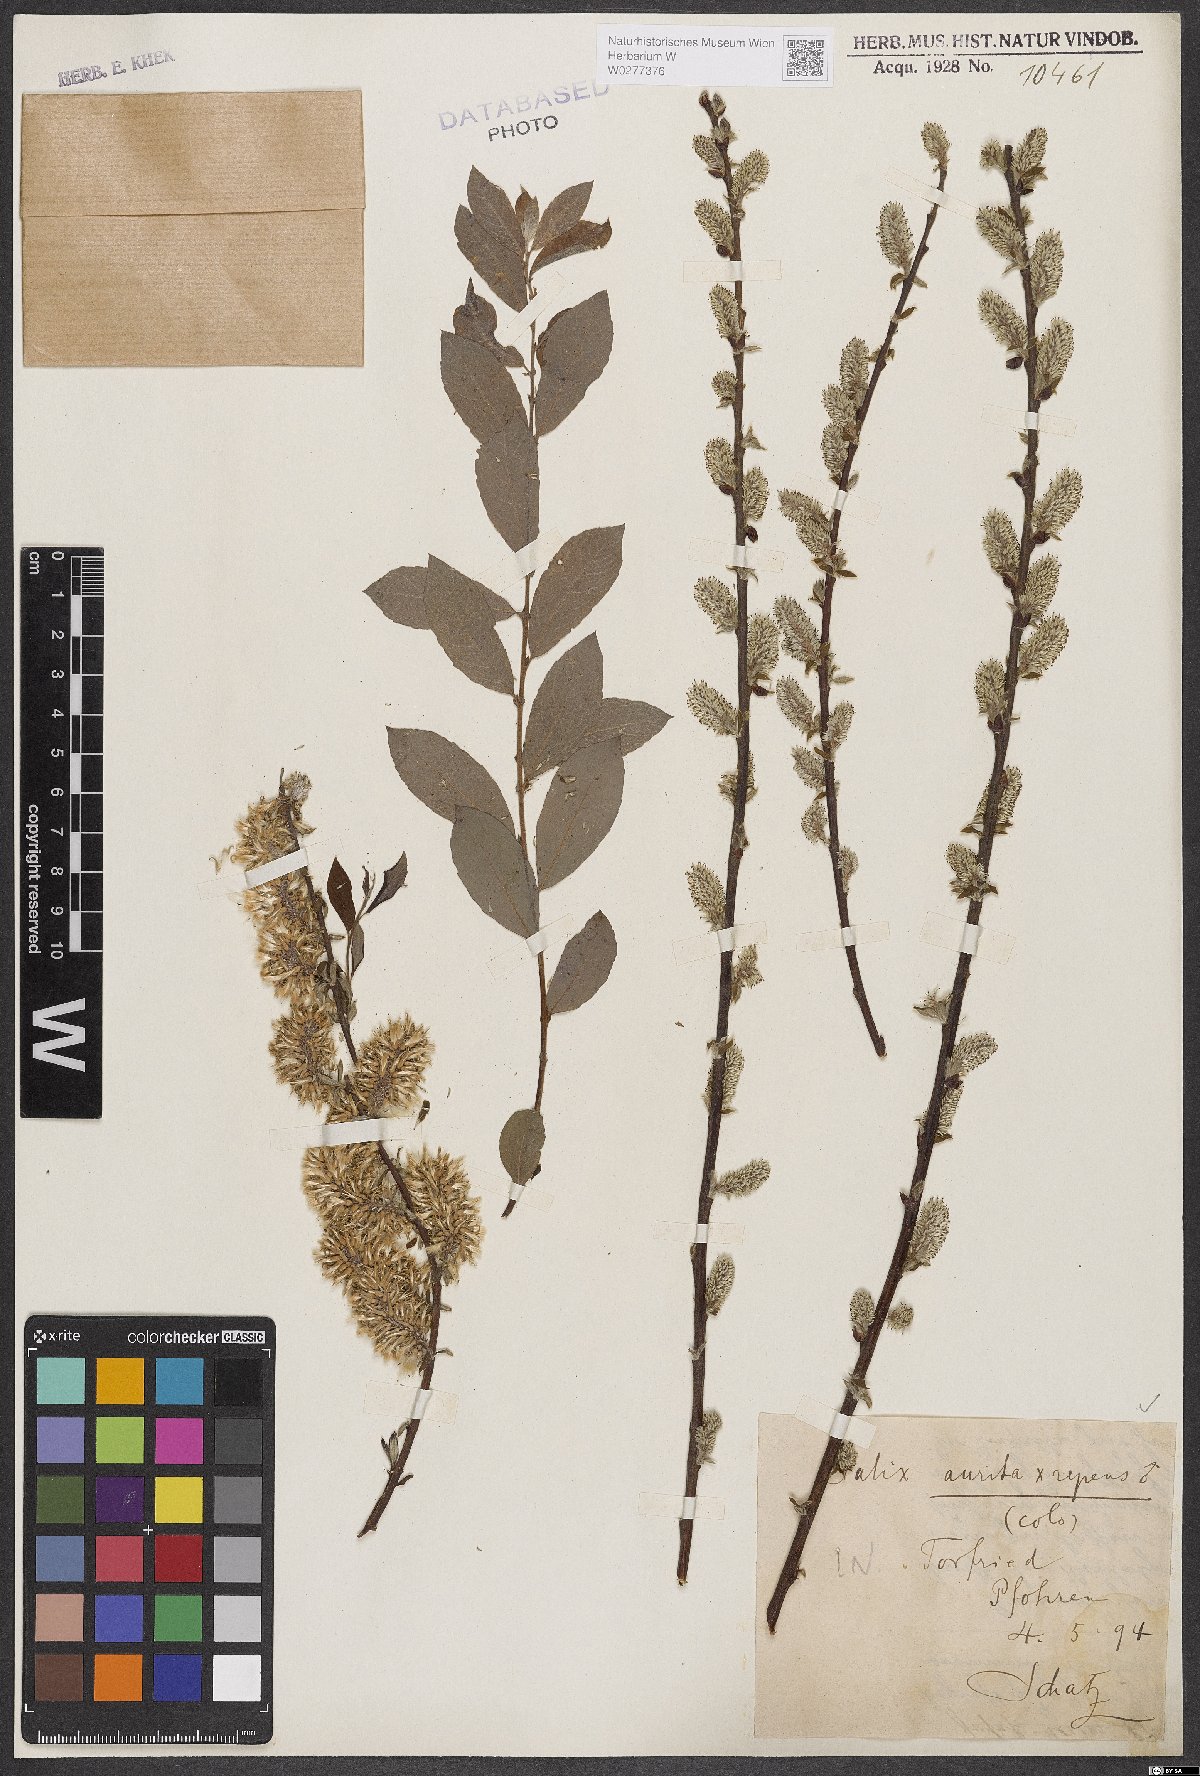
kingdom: Plantae
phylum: Tracheophyta
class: Magnoliopsida
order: Malpighiales
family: Salicaceae
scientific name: Salicaceae
